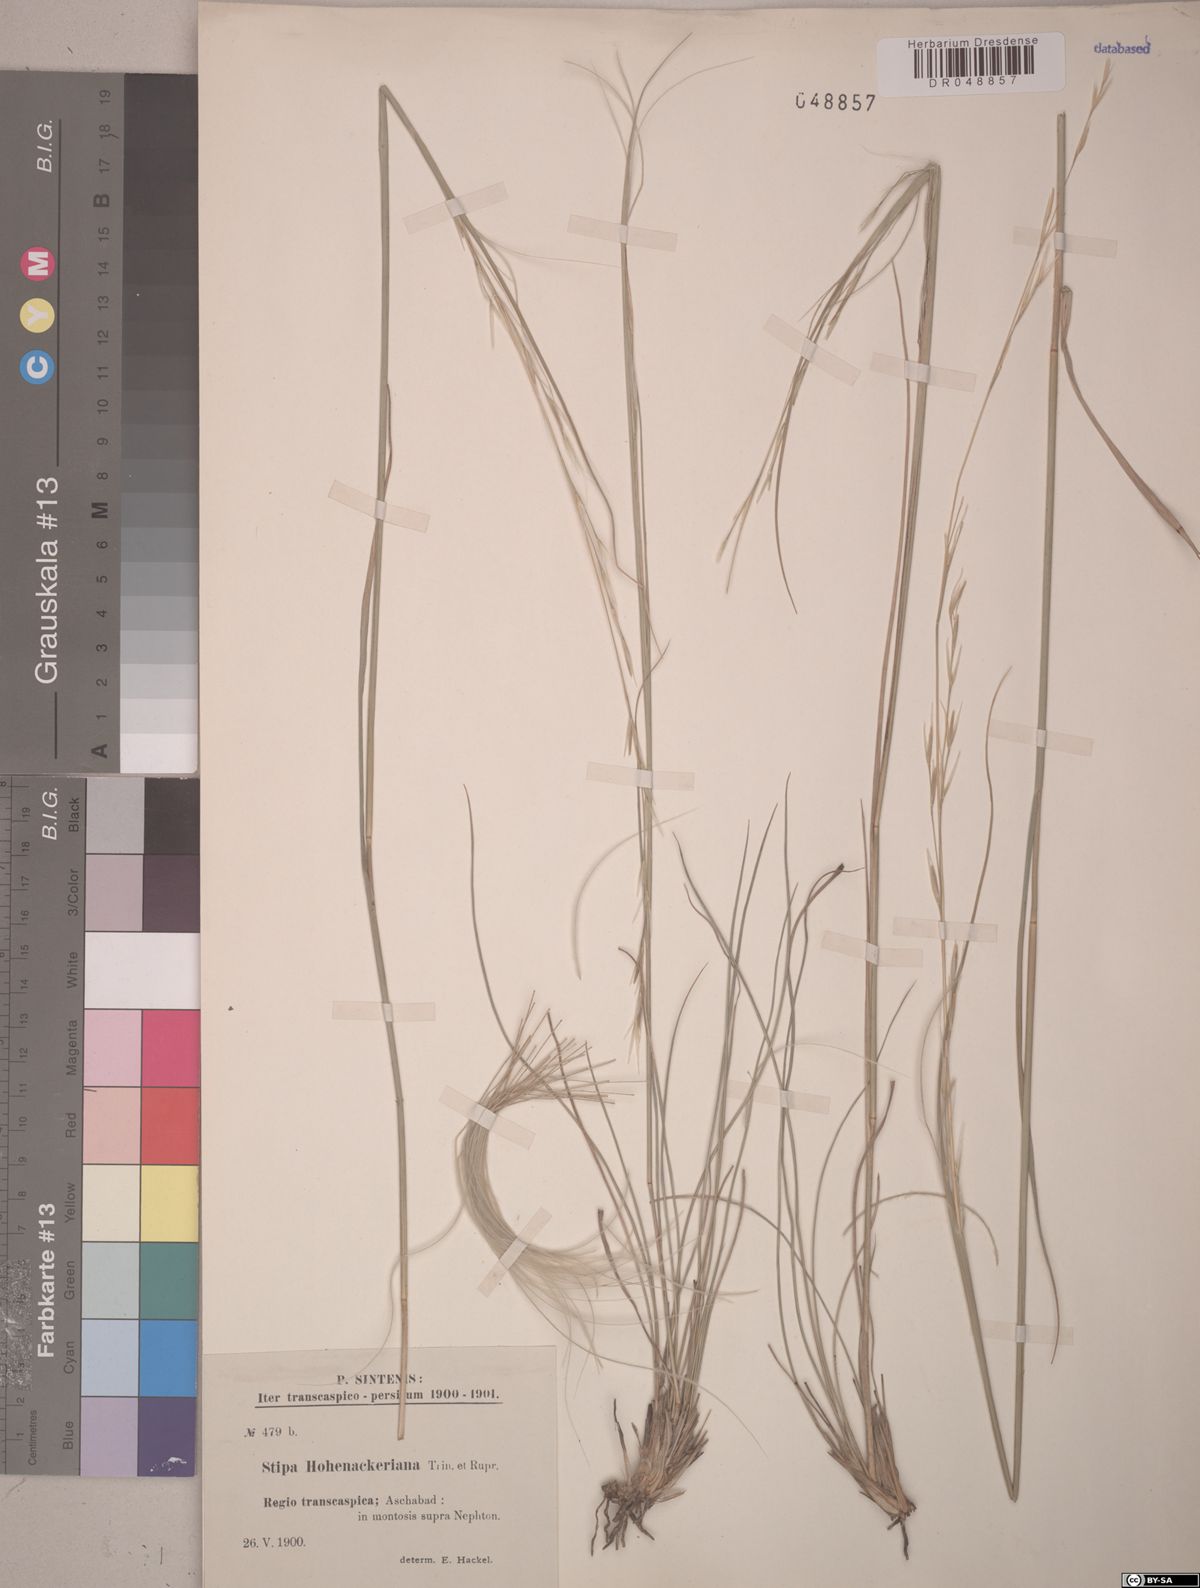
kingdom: Plantae
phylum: Tracheophyta
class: Liliopsida
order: Poales
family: Poaceae
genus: Stipa
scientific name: Stipa hohenackeriana
